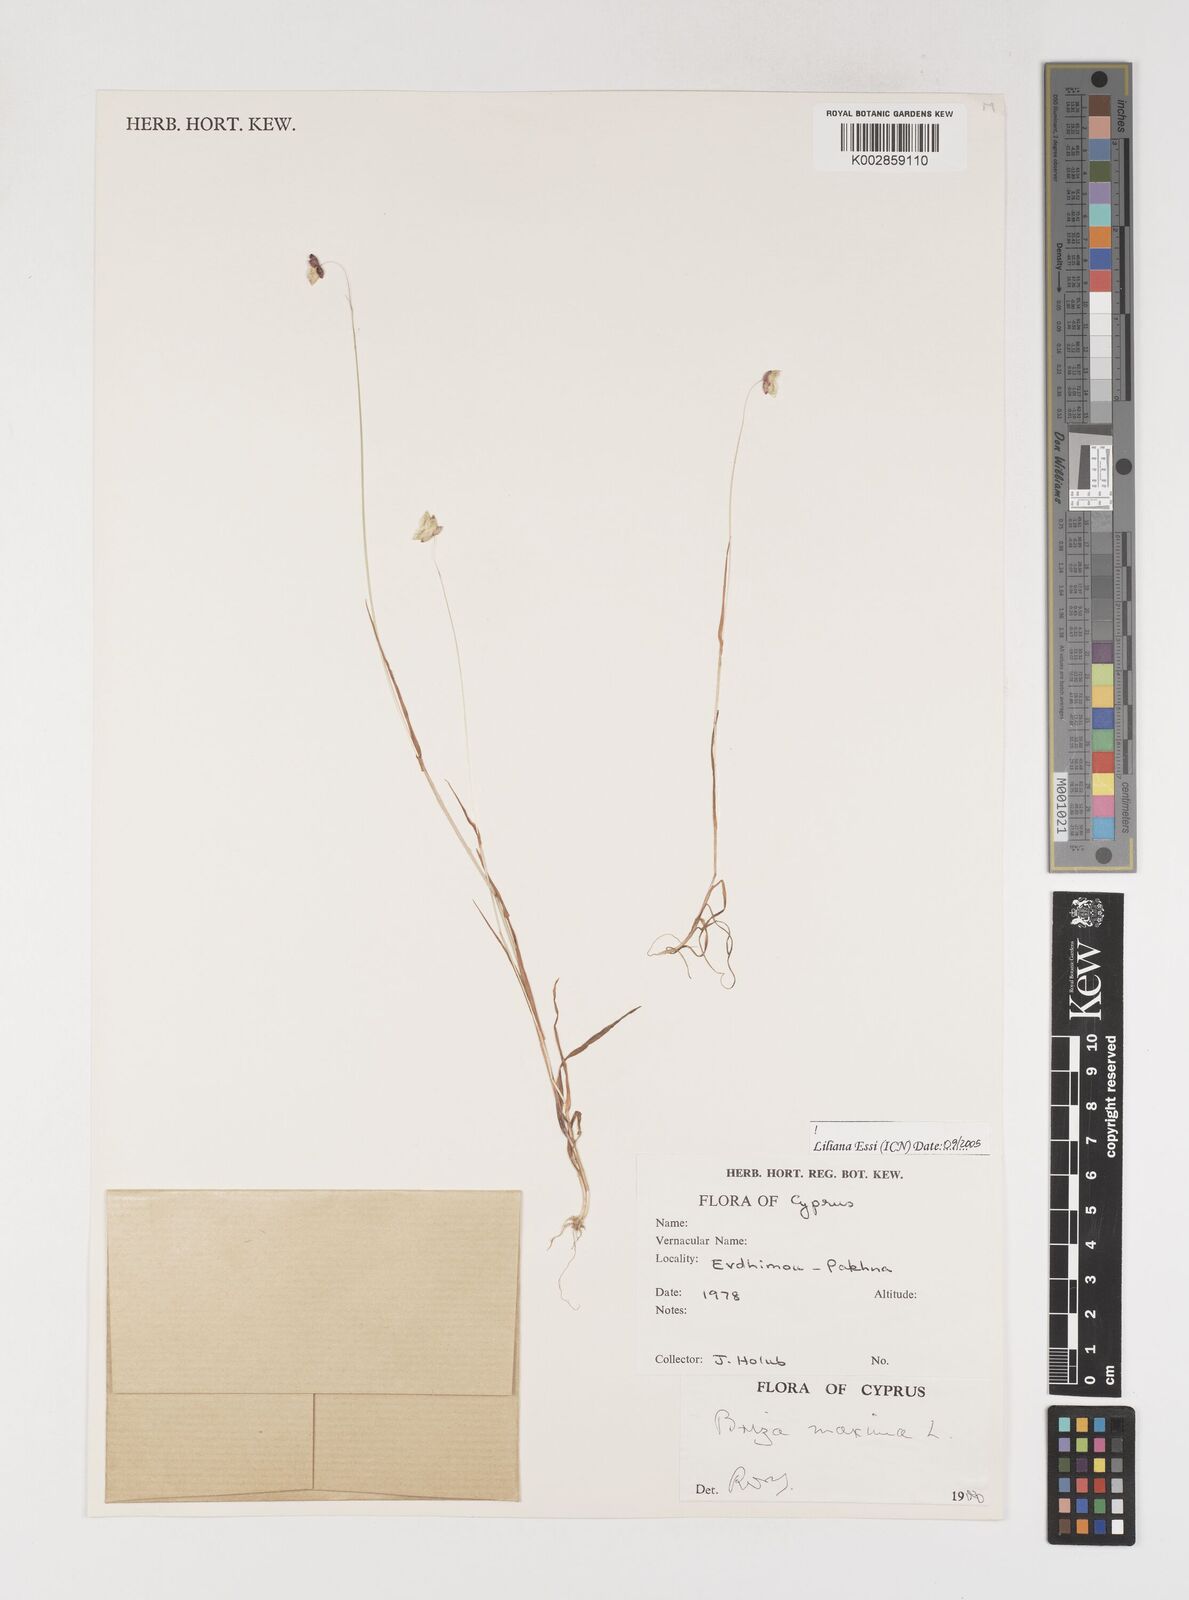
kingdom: Plantae
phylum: Tracheophyta
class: Liliopsida
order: Poales
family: Poaceae
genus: Briza
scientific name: Briza maxima
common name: Big quakinggrass
